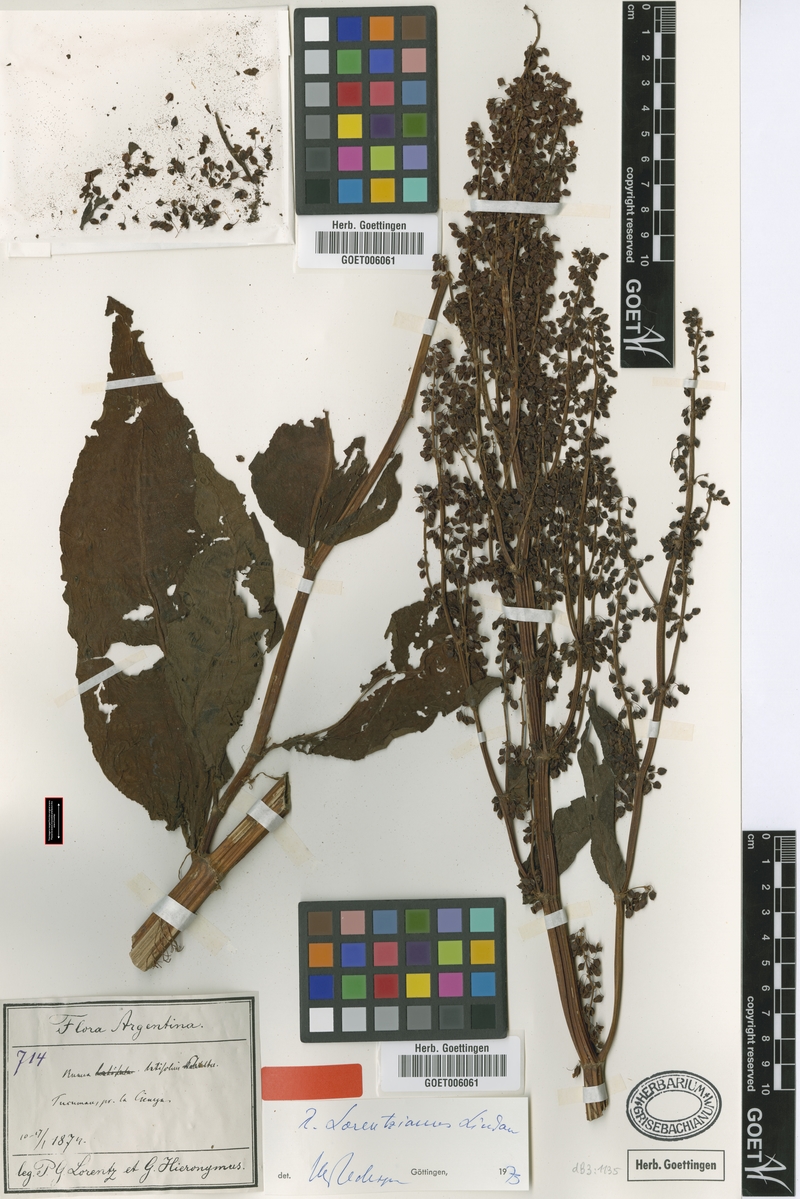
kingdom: Plantae
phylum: Tracheophyta
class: Magnoliopsida
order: Caryophyllales
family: Polygonaceae
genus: Rumex
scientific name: Rumex lorentzianus
